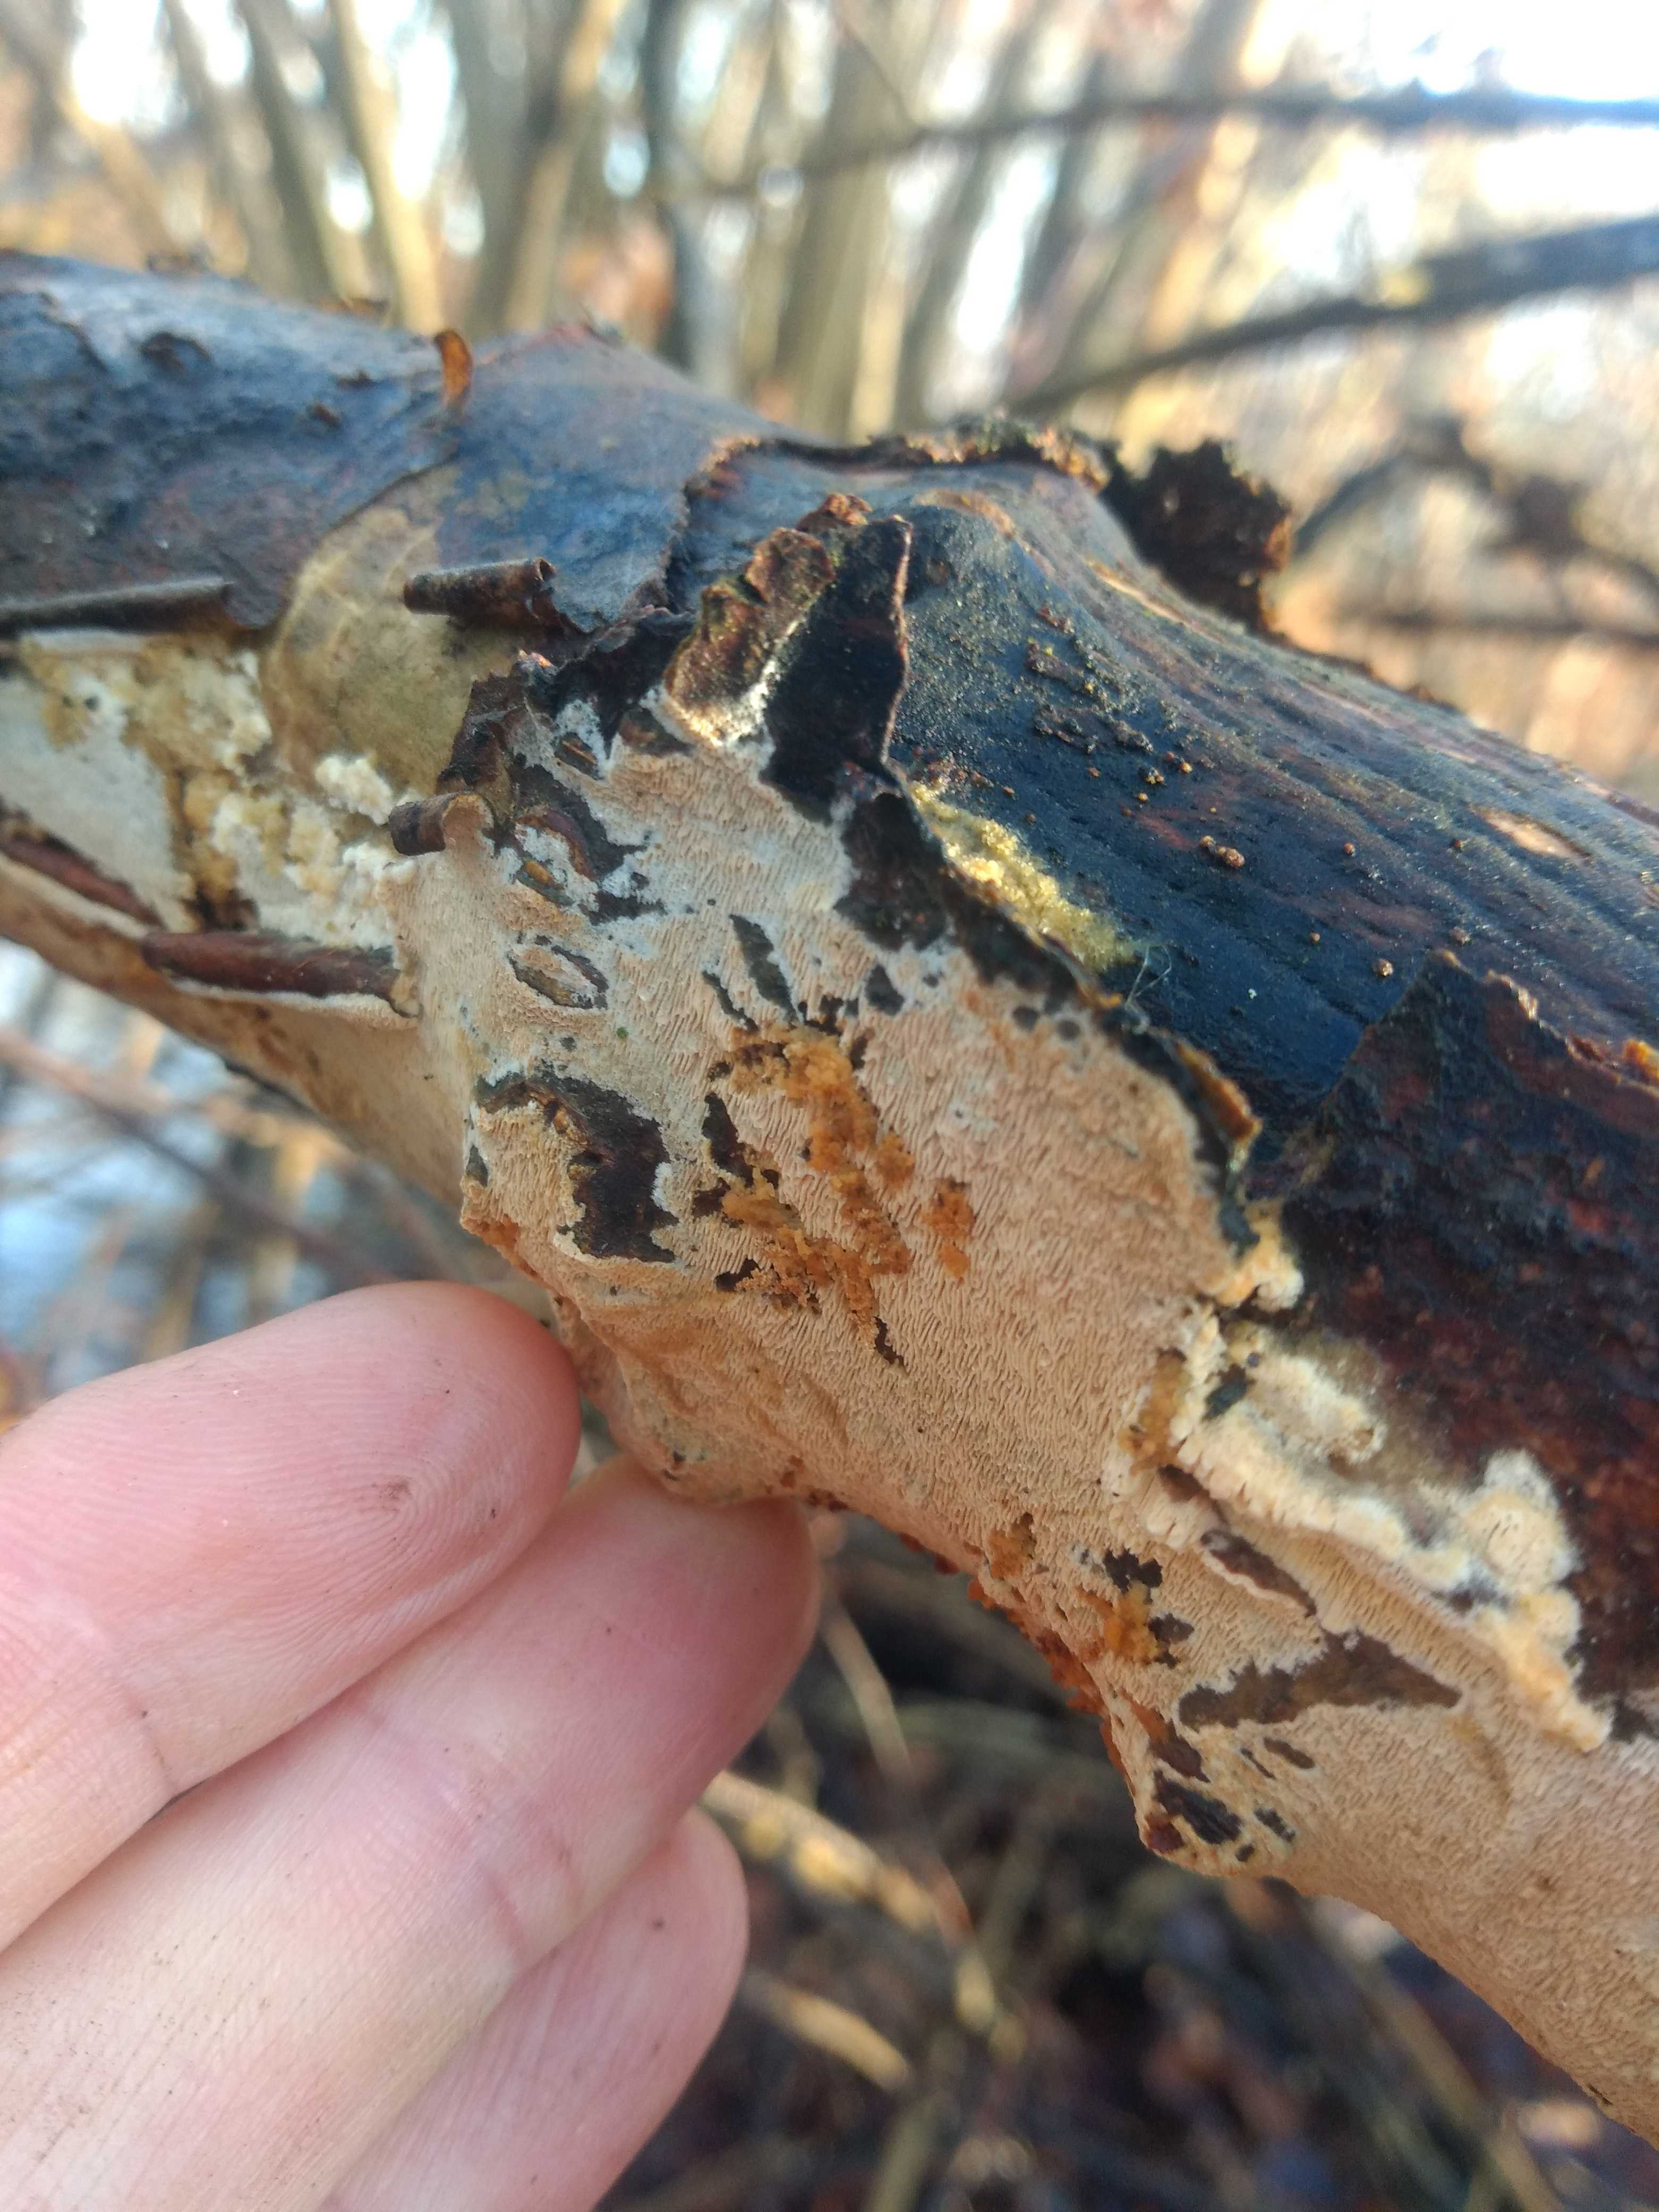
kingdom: Fungi
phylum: Basidiomycota
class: Agaricomycetes
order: Polyporales
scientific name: Polyporales
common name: poresvampordenen
